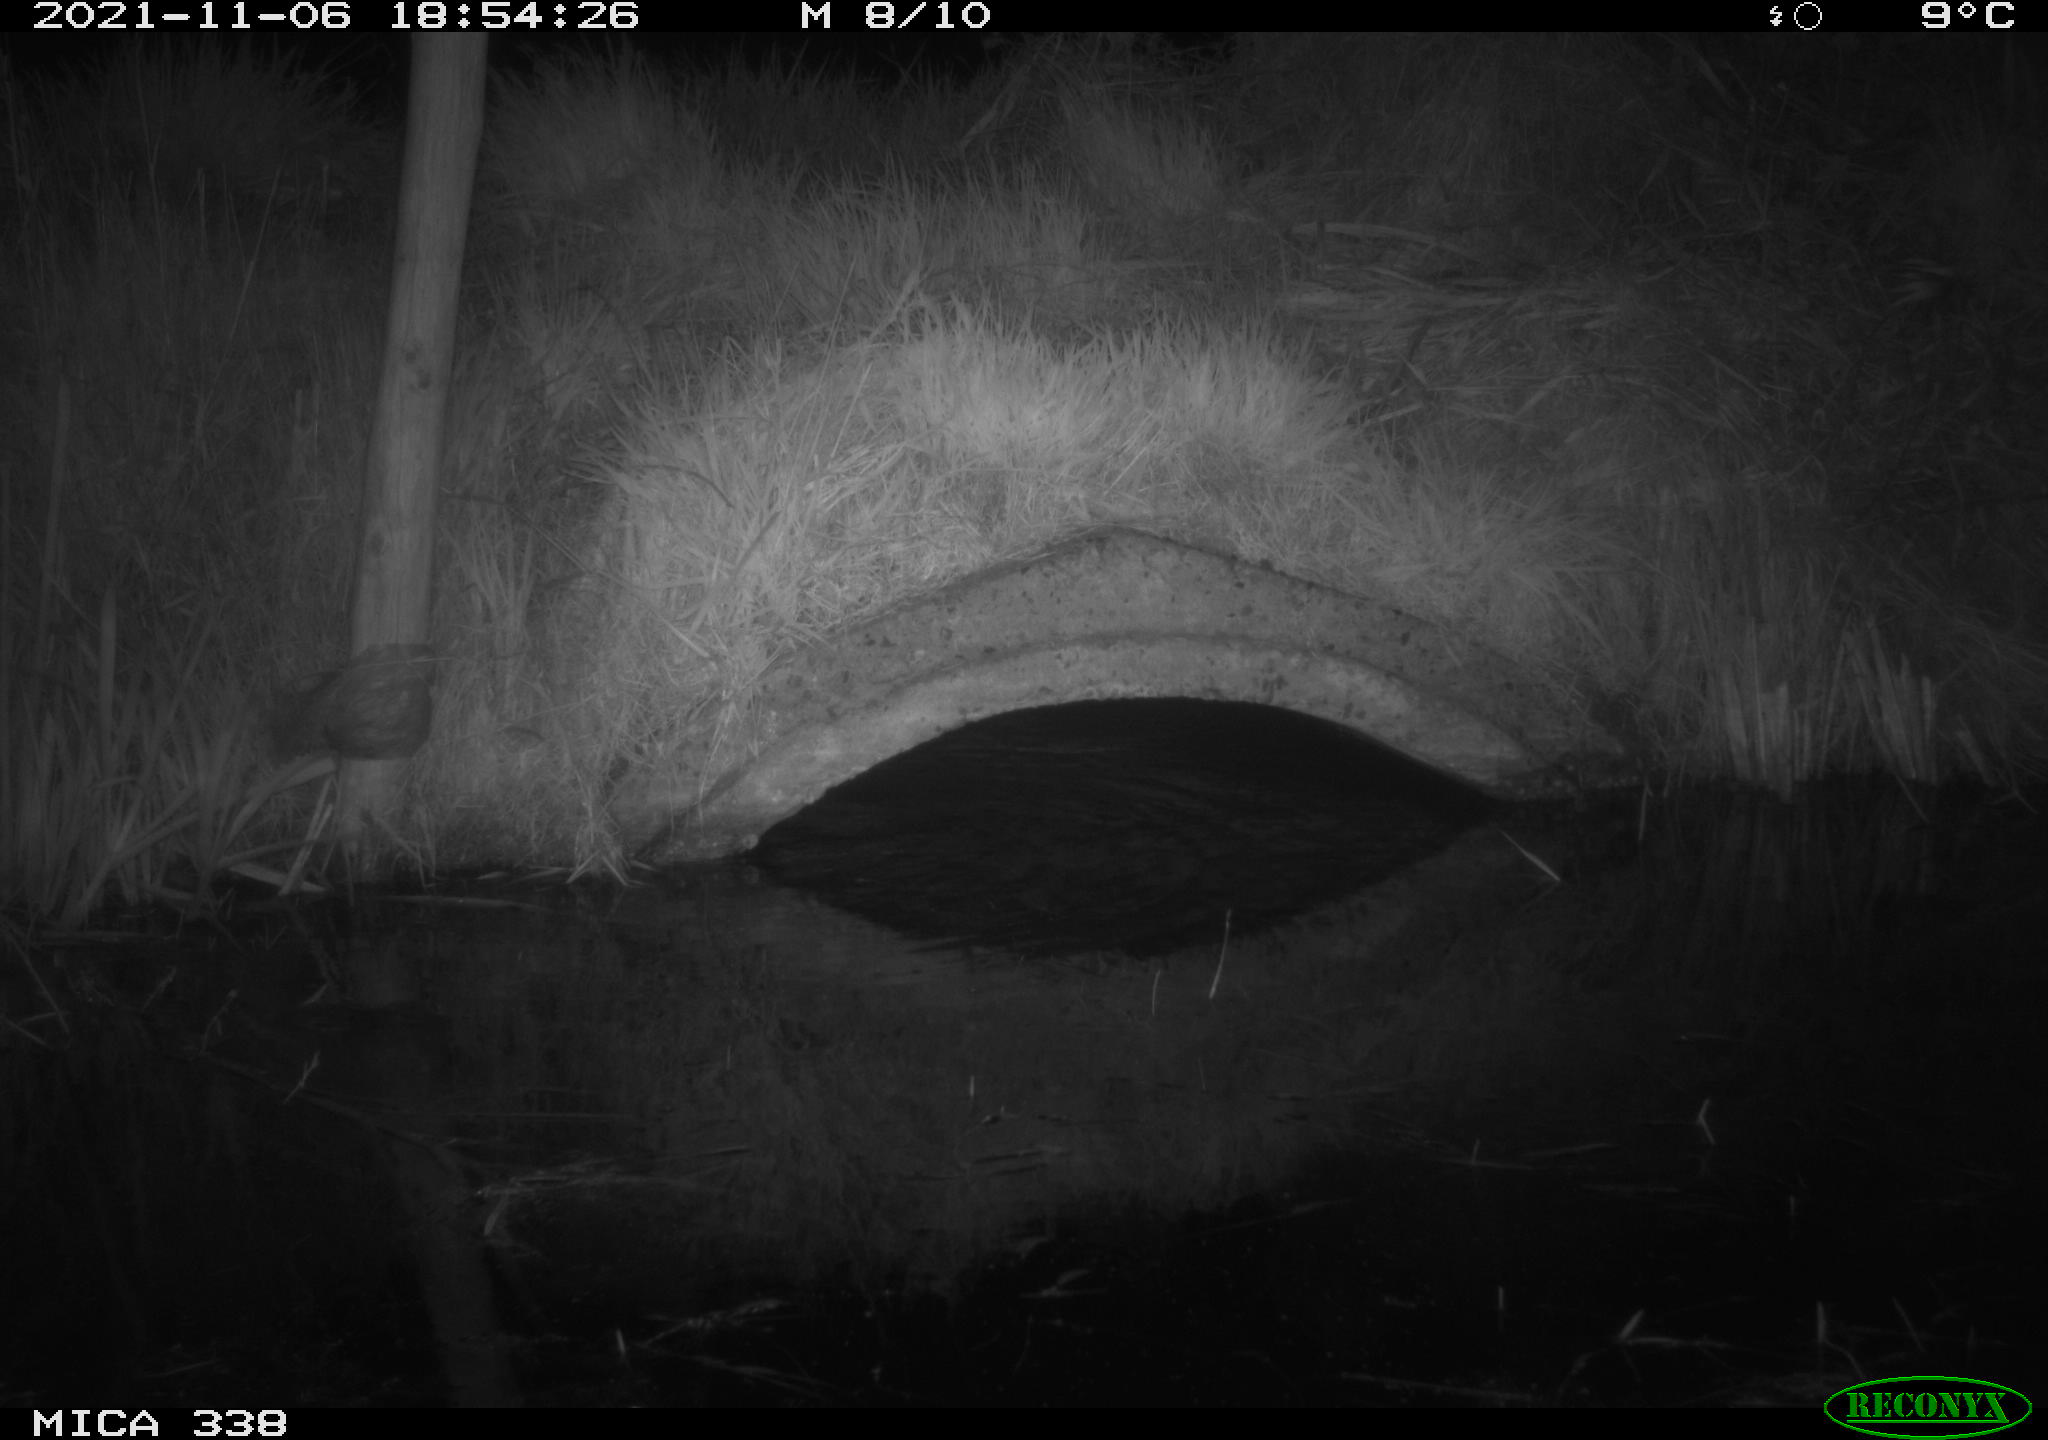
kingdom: Animalia
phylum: Chordata
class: Mammalia
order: Rodentia
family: Muridae
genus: Rattus
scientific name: Rattus norvegicus
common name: Brown rat
